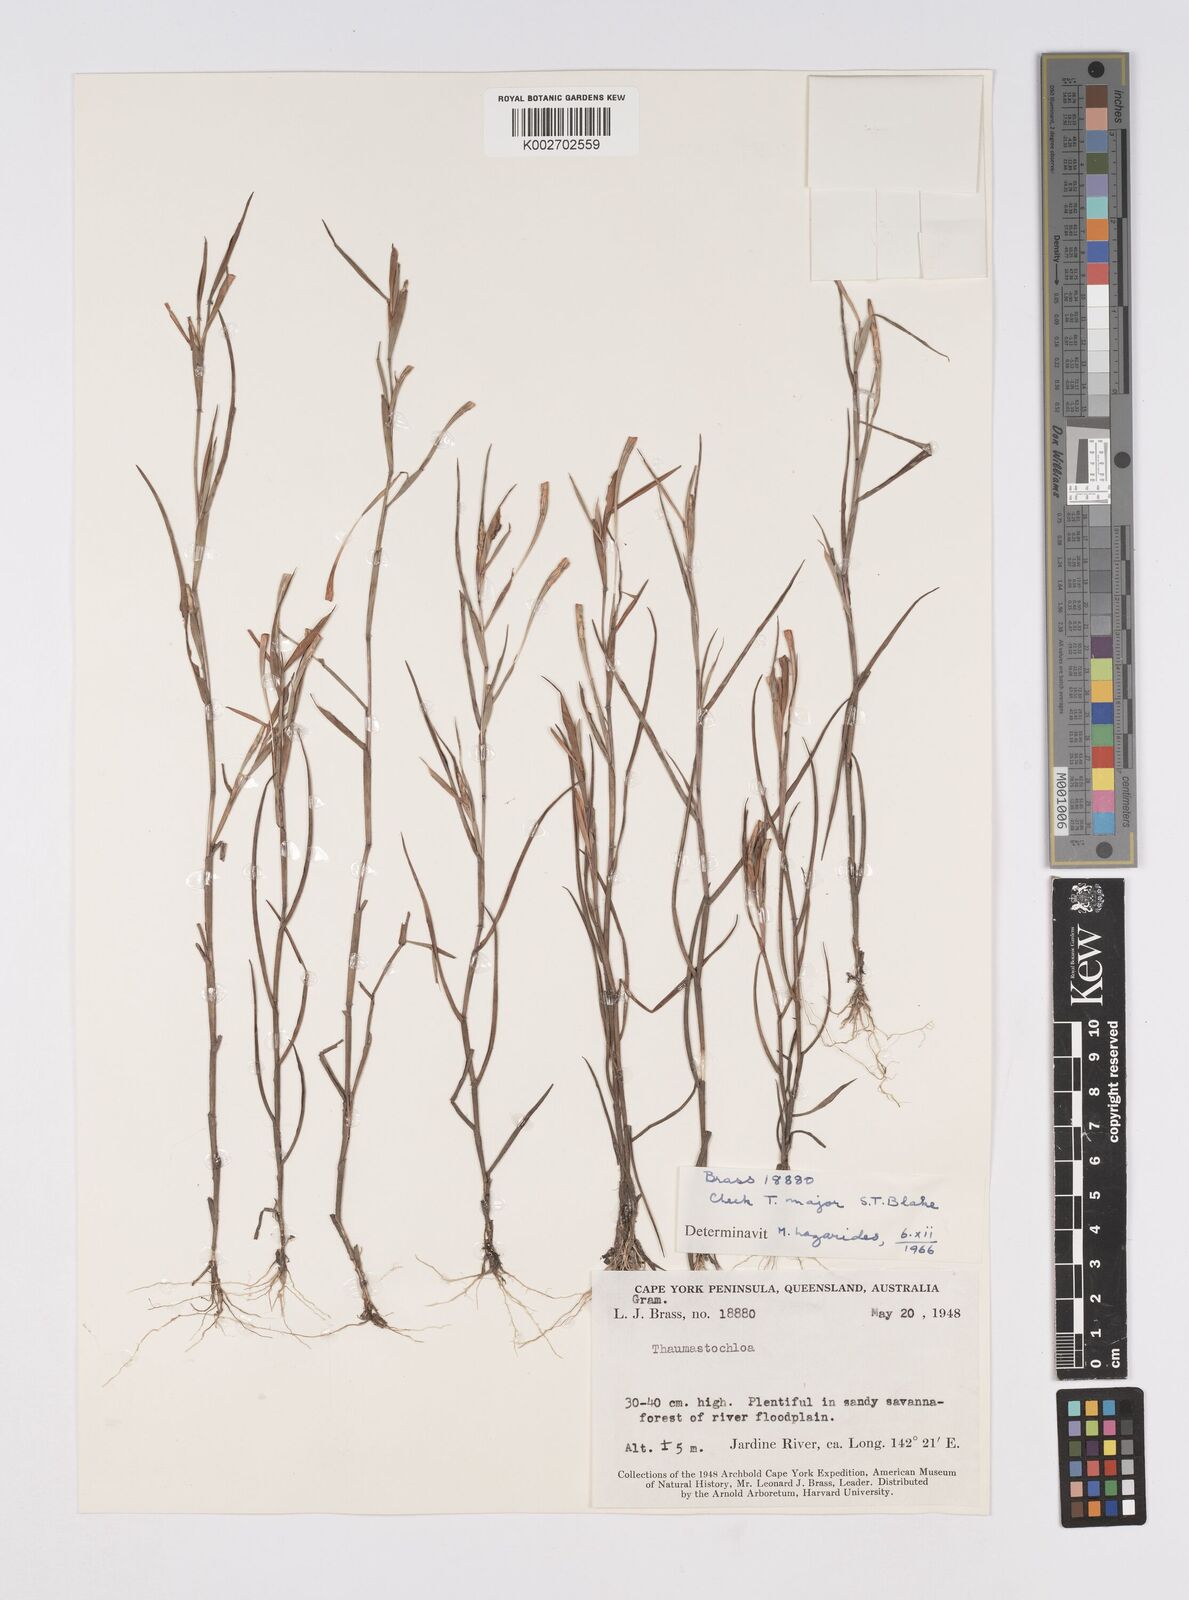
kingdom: Plantae
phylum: Tracheophyta
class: Liliopsida
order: Poales
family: Poaceae
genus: Thaumastochloa
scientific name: Thaumastochloa pubescens
